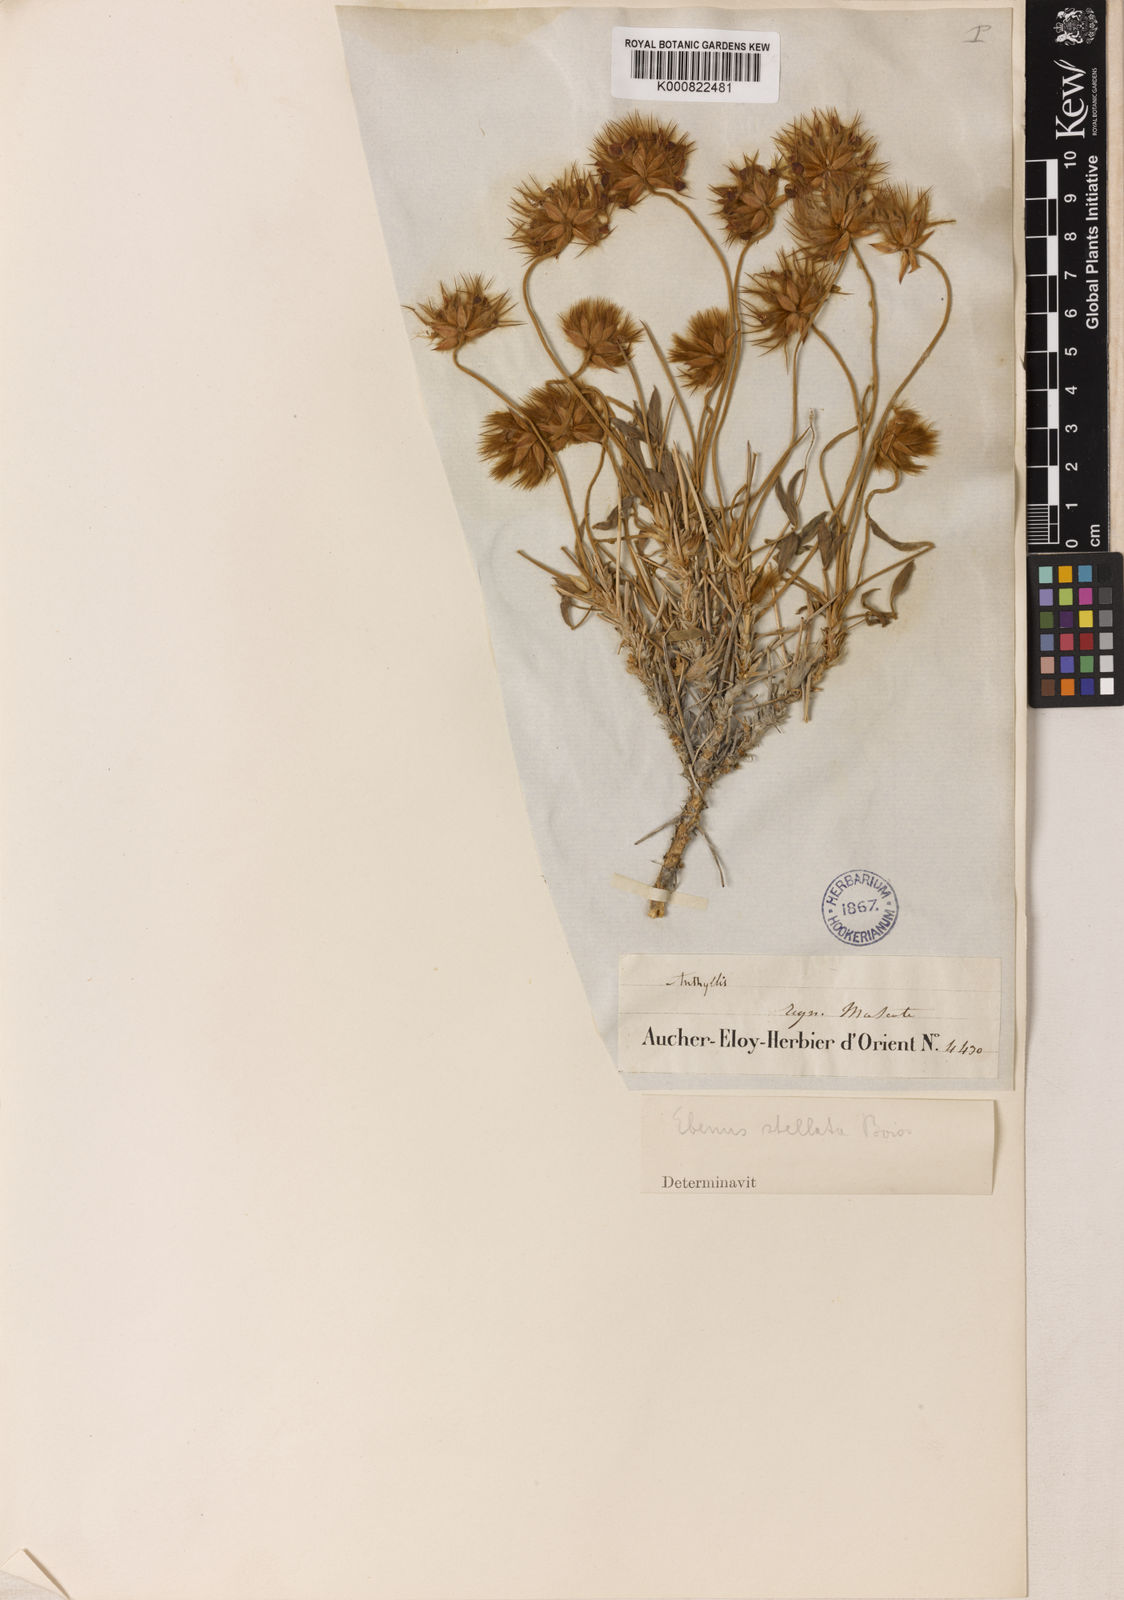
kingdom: Plantae
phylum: Tracheophyta
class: Magnoliopsida
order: Fabales
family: Fabaceae
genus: Ebenus
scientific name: Ebenus stellata
